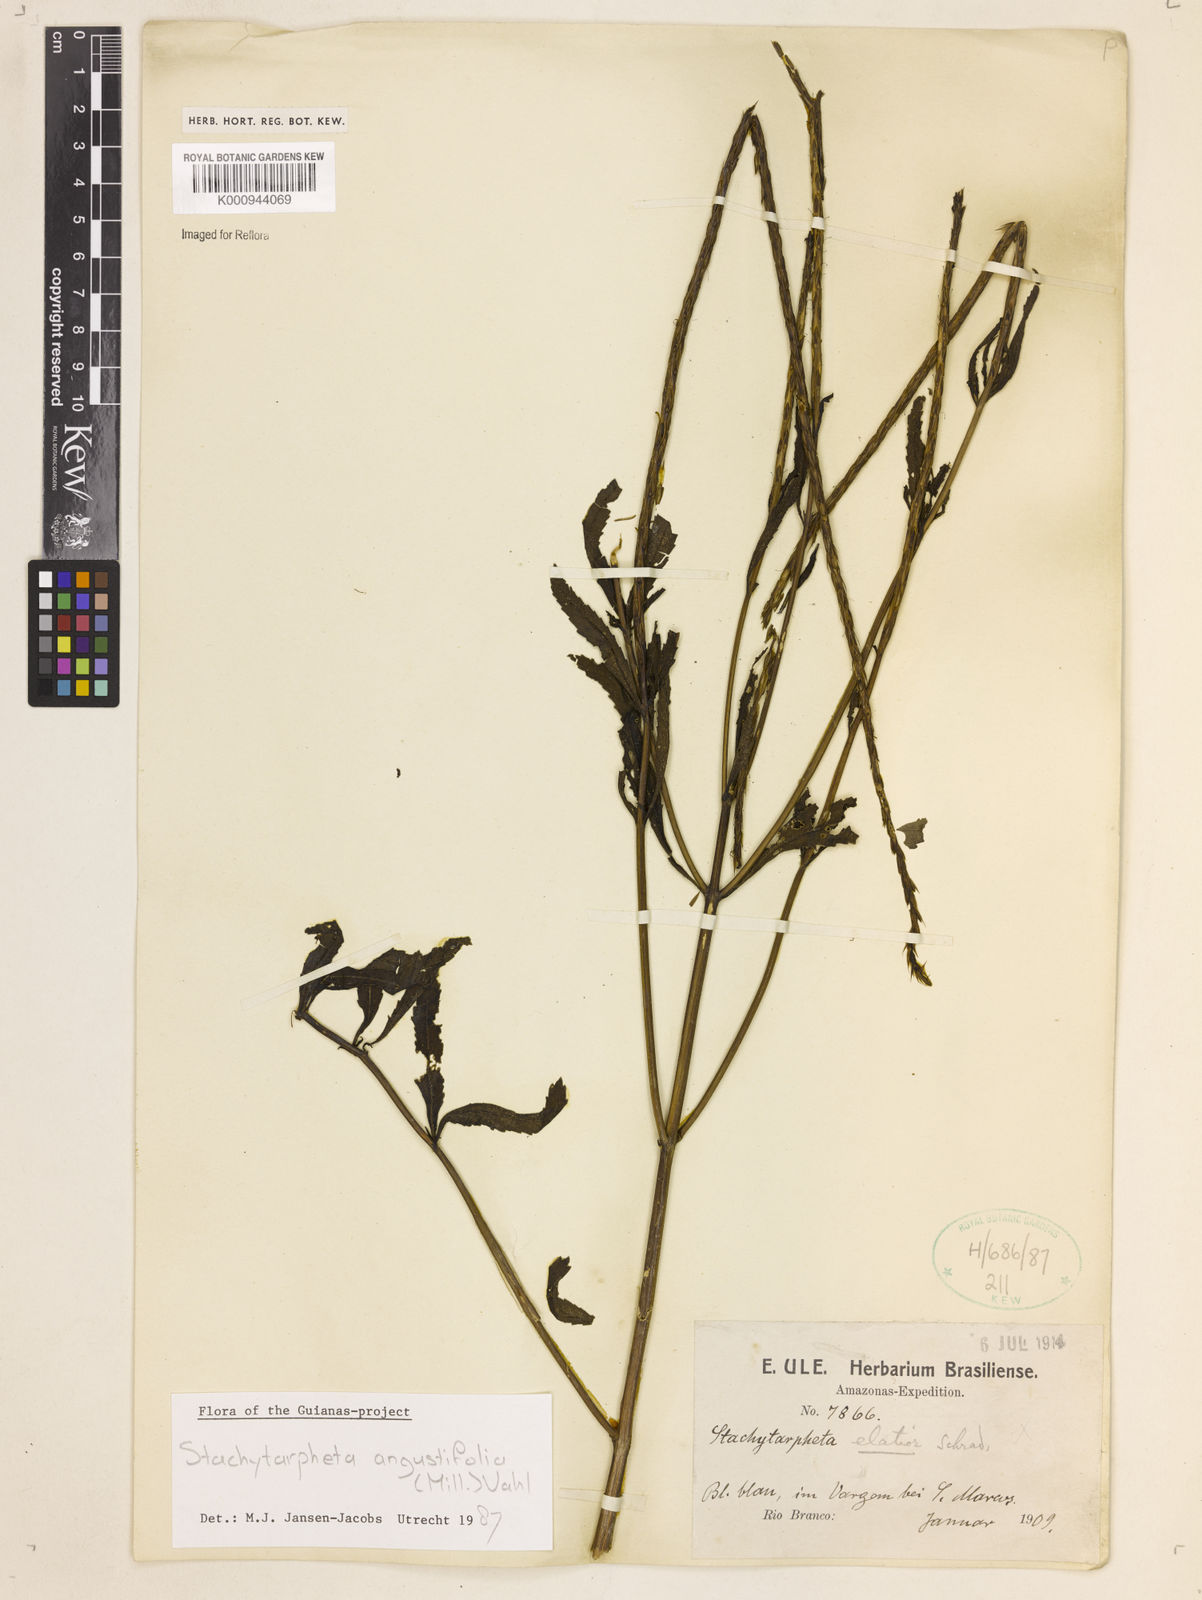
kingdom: Plantae
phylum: Tracheophyta
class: Magnoliopsida
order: Lamiales
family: Verbenaceae
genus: Stachytarpheta
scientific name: Stachytarpheta indica
